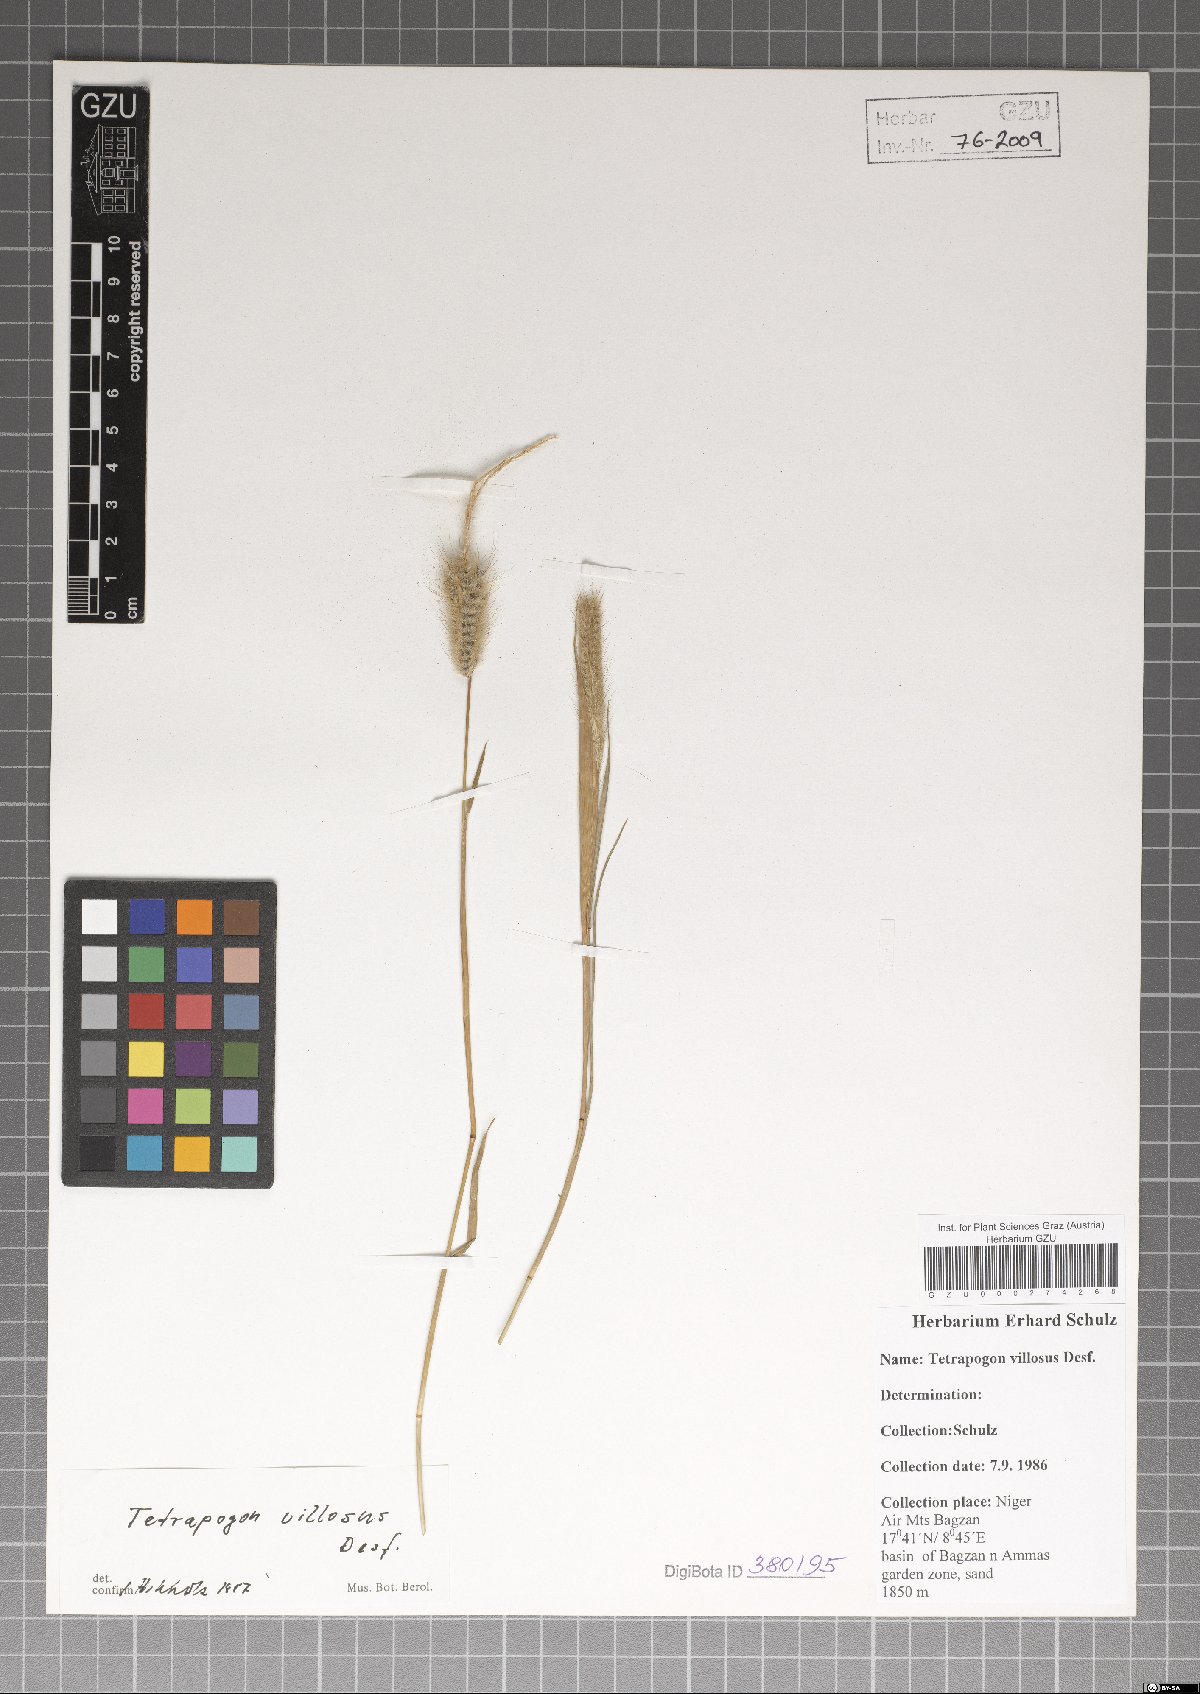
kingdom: Plantae
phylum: Tracheophyta
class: Liliopsida
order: Poales
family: Poaceae
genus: Tetrapogon
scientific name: Tetrapogon villosus
